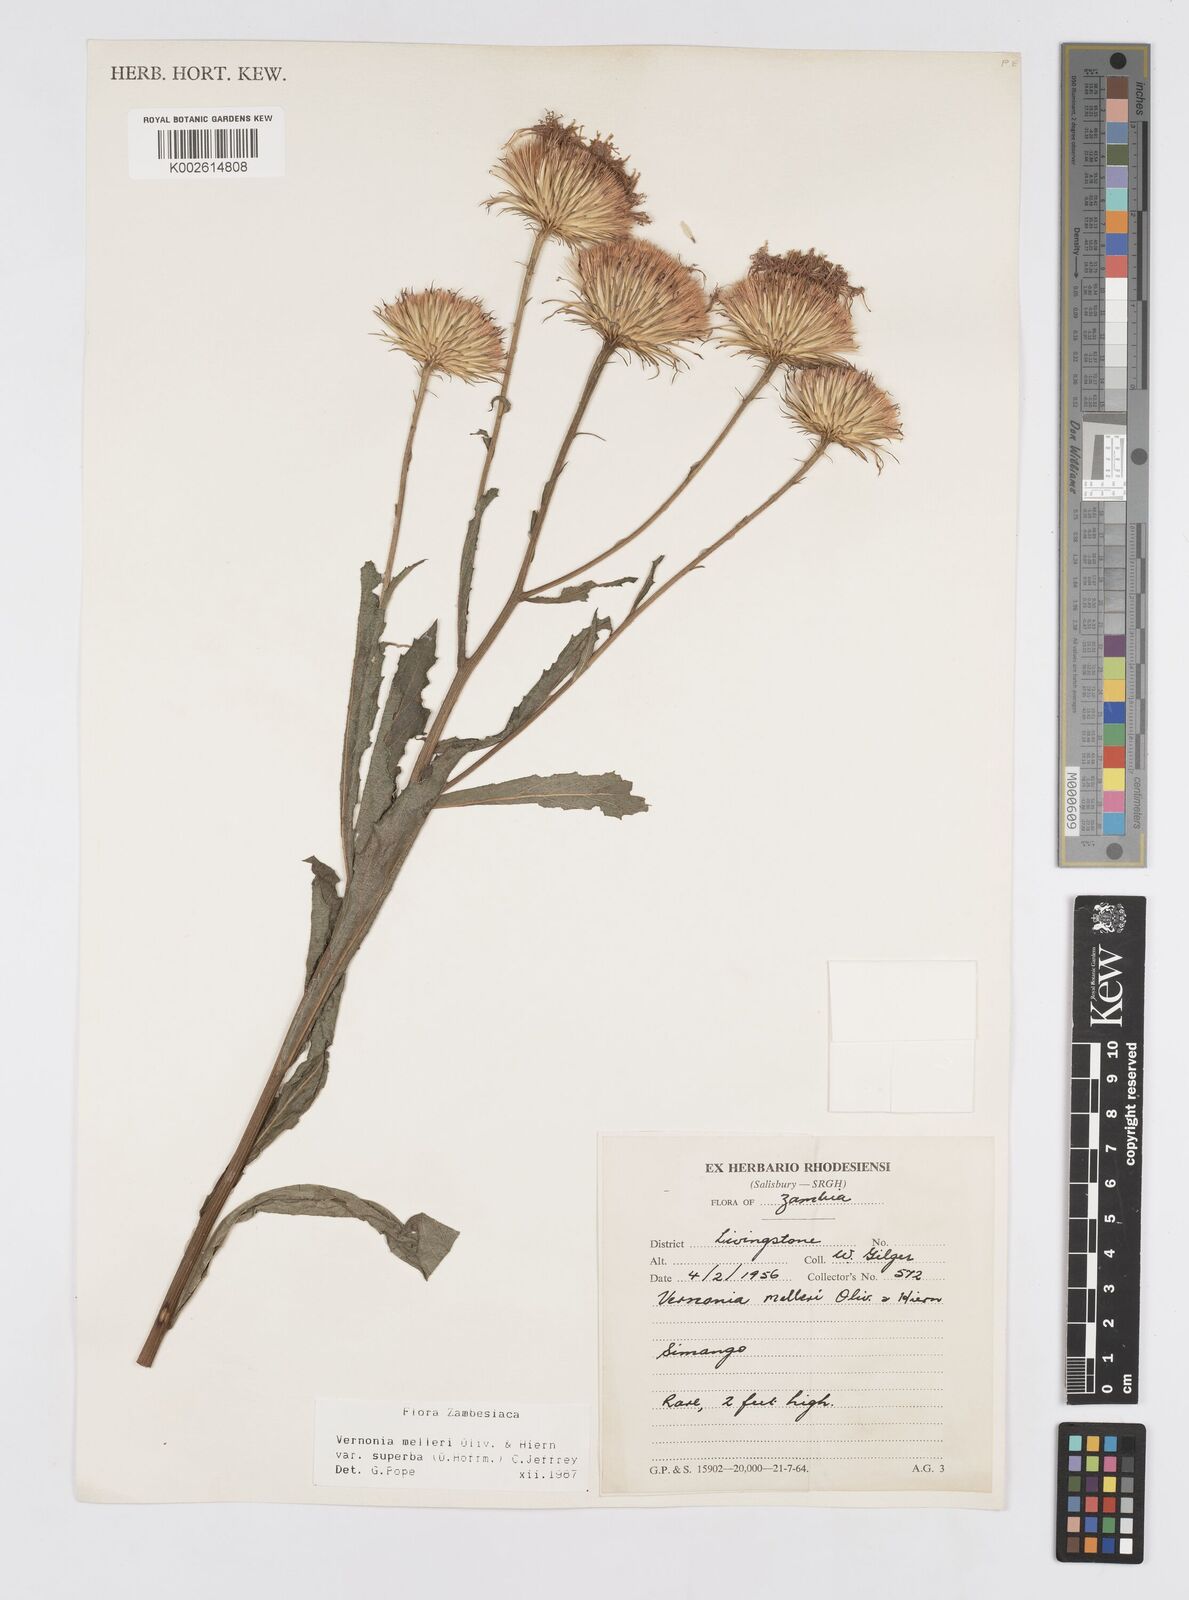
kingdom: Plantae
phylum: Tracheophyta
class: Magnoliopsida
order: Asterales
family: Asteraceae
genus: Linzia
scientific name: Linzia melleri
